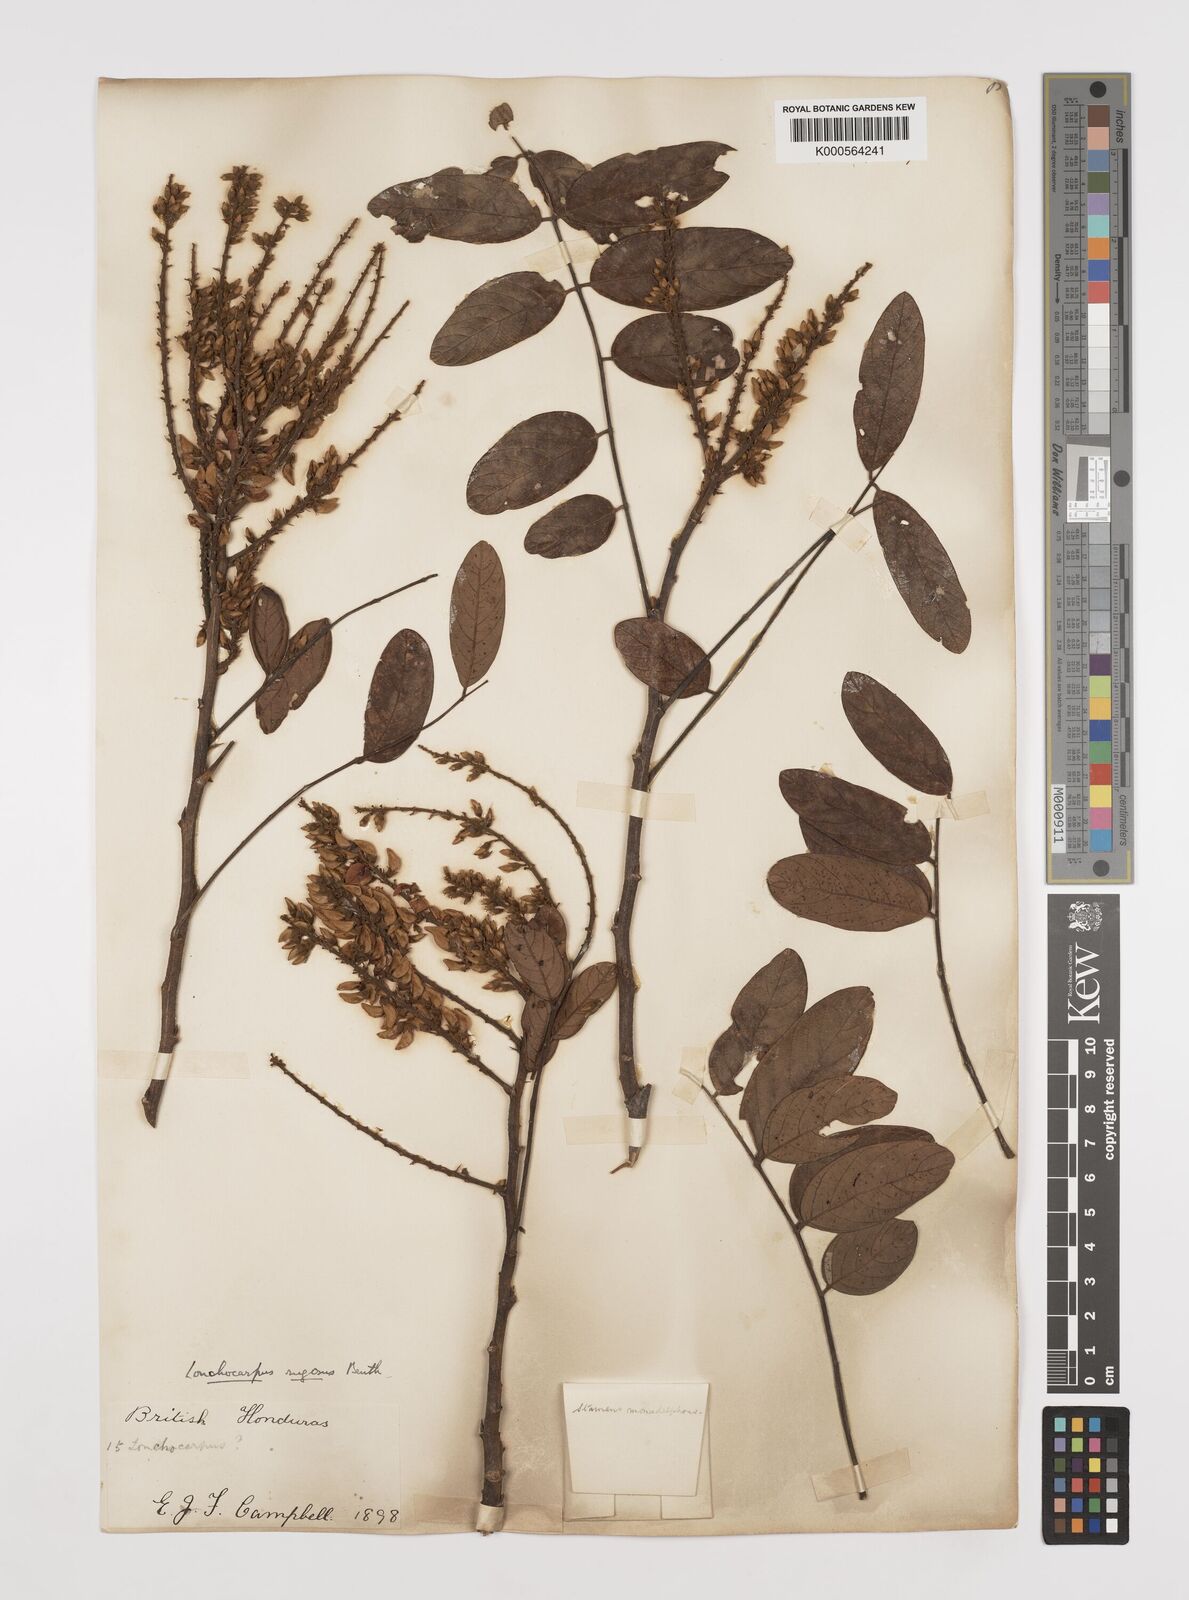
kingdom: Plantae
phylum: Tracheophyta
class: Magnoliopsida
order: Fabales
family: Fabaceae
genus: Lonchocarpus
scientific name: Lonchocarpus rugosus
